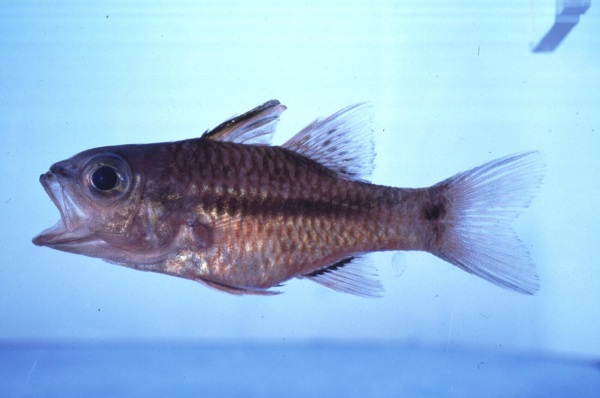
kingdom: Animalia
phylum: Chordata
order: Perciformes
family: Apogonidae
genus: Pristiapogon
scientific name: Pristiapogon kallopterus
